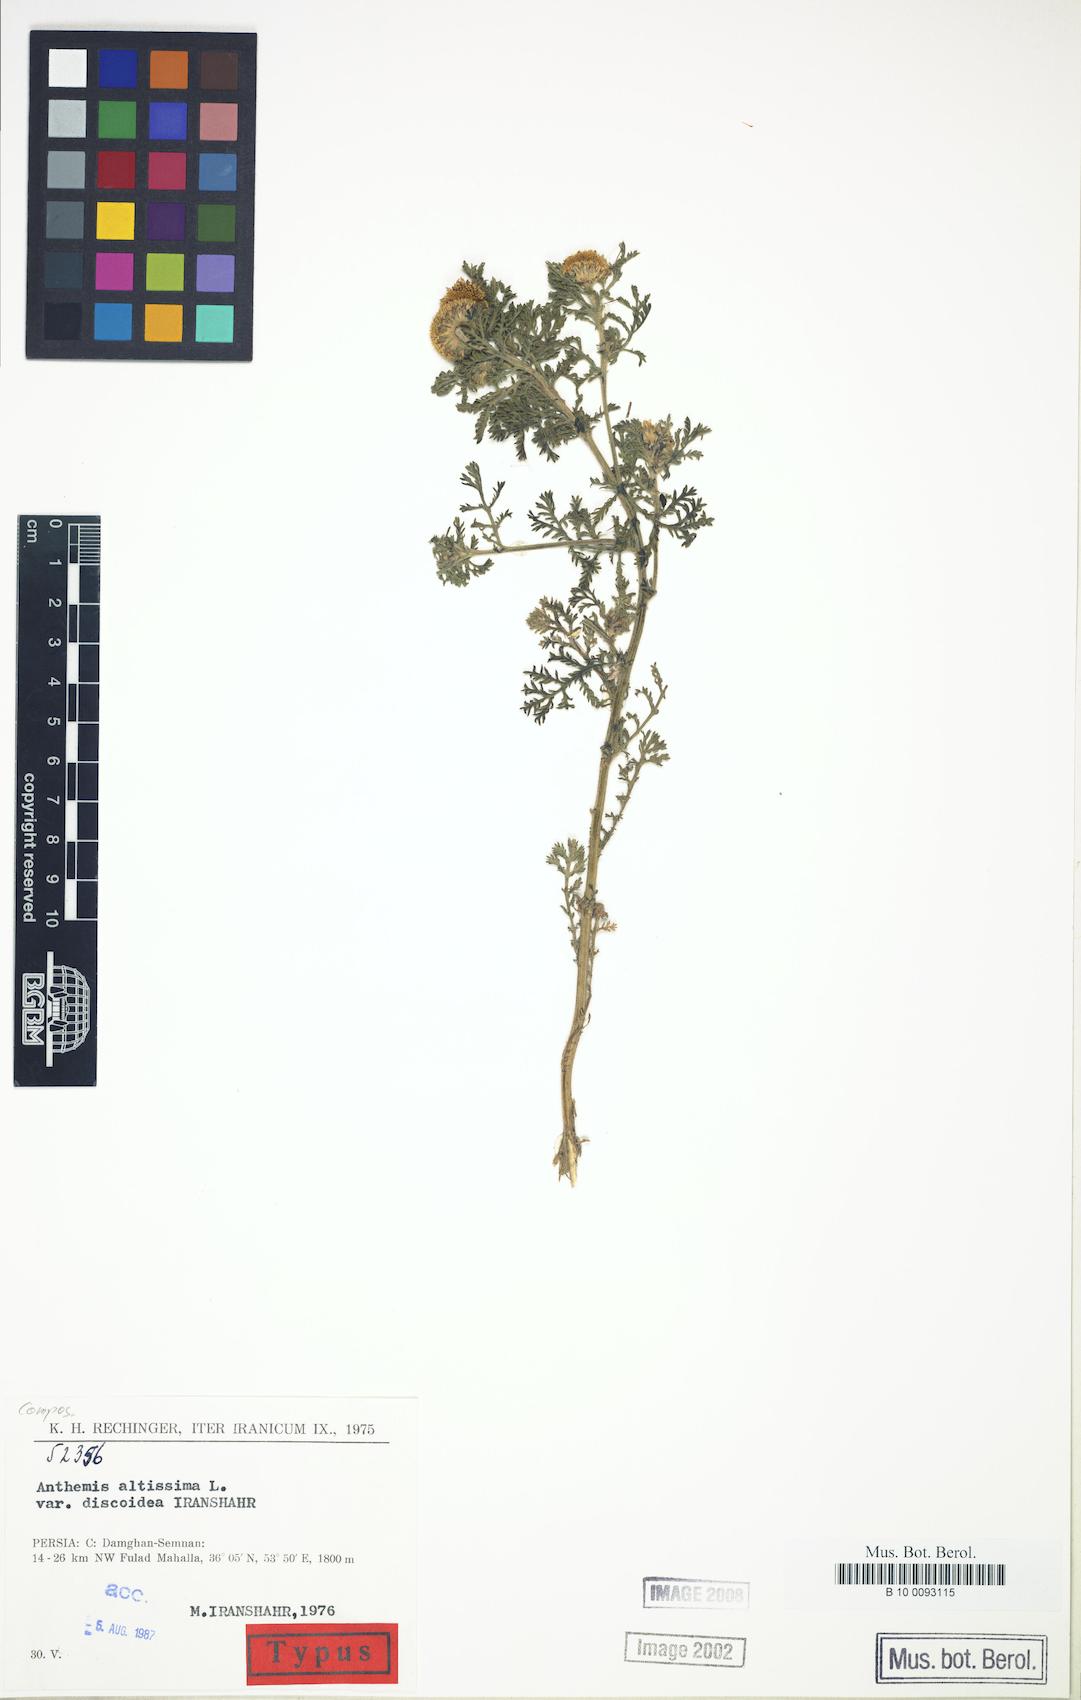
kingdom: Plantae
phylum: Tracheophyta
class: Magnoliopsida
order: Asterales
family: Asteraceae
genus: Cota
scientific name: Cota altissima
